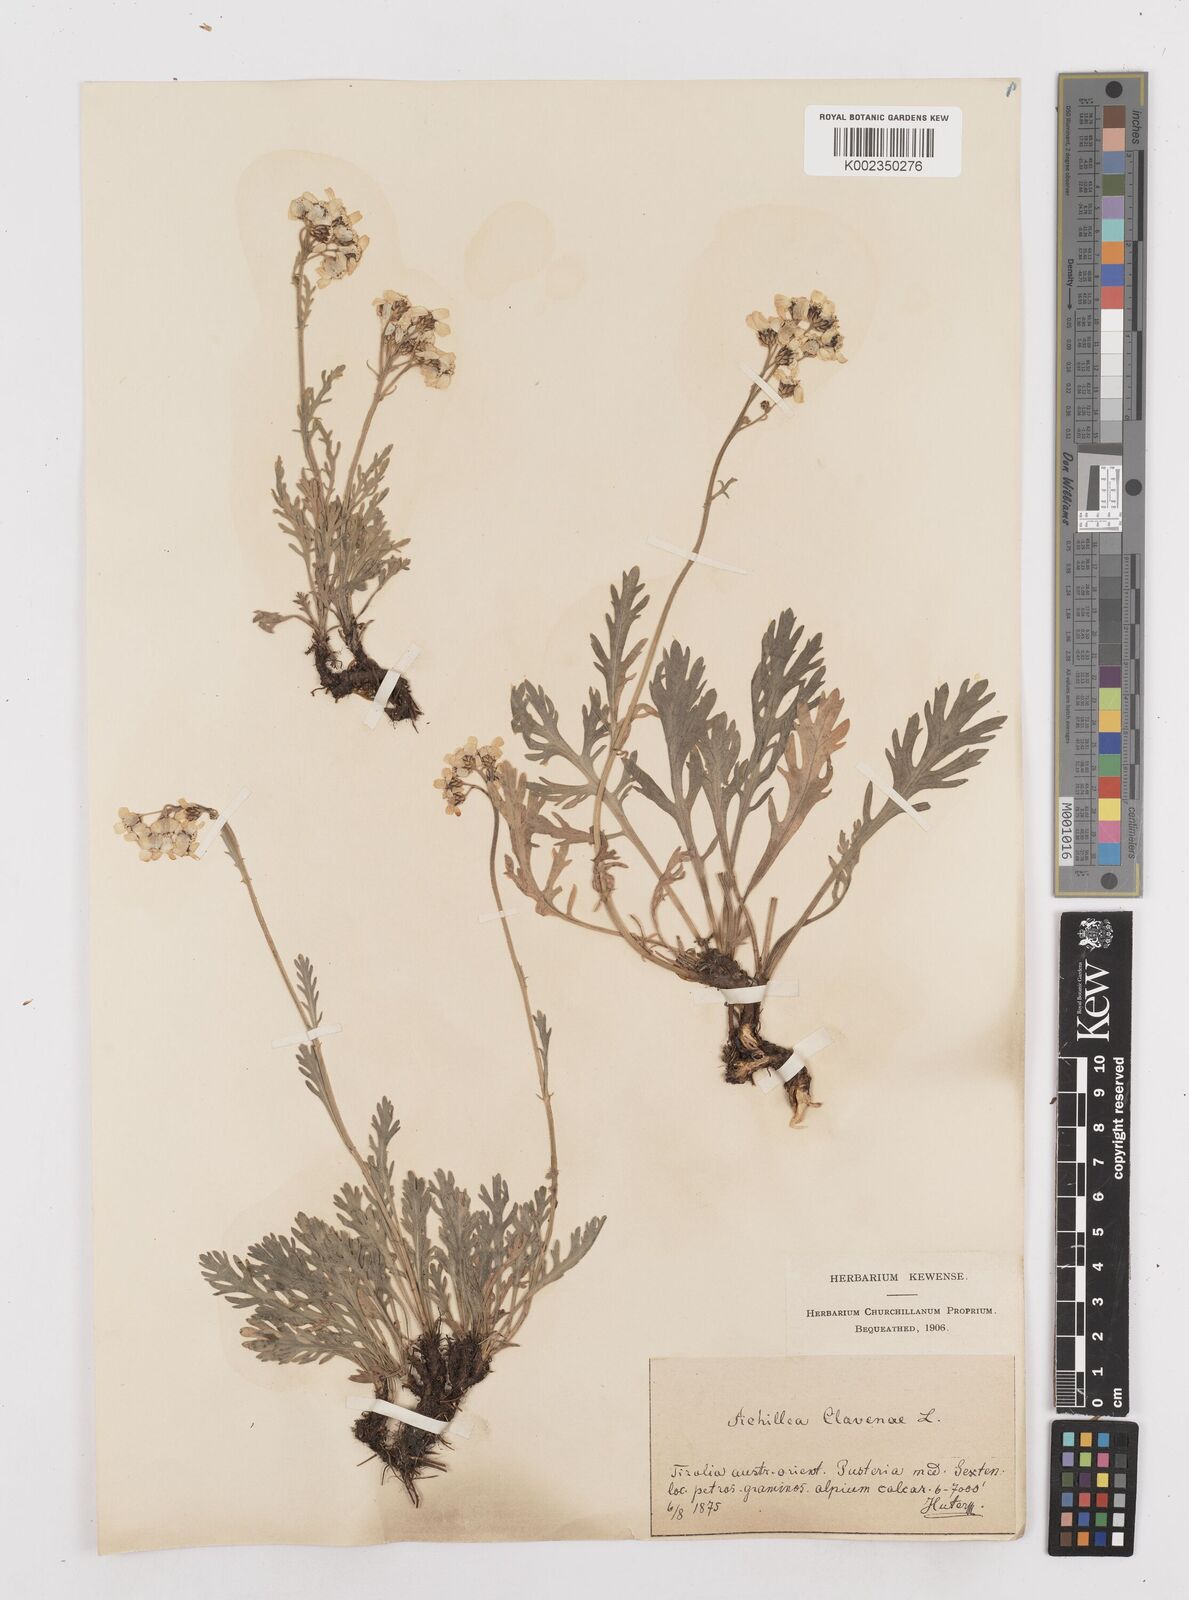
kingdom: Plantae
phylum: Tracheophyta
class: Magnoliopsida
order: Asterales
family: Asteraceae
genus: Achillea
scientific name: Achillea clavennae
